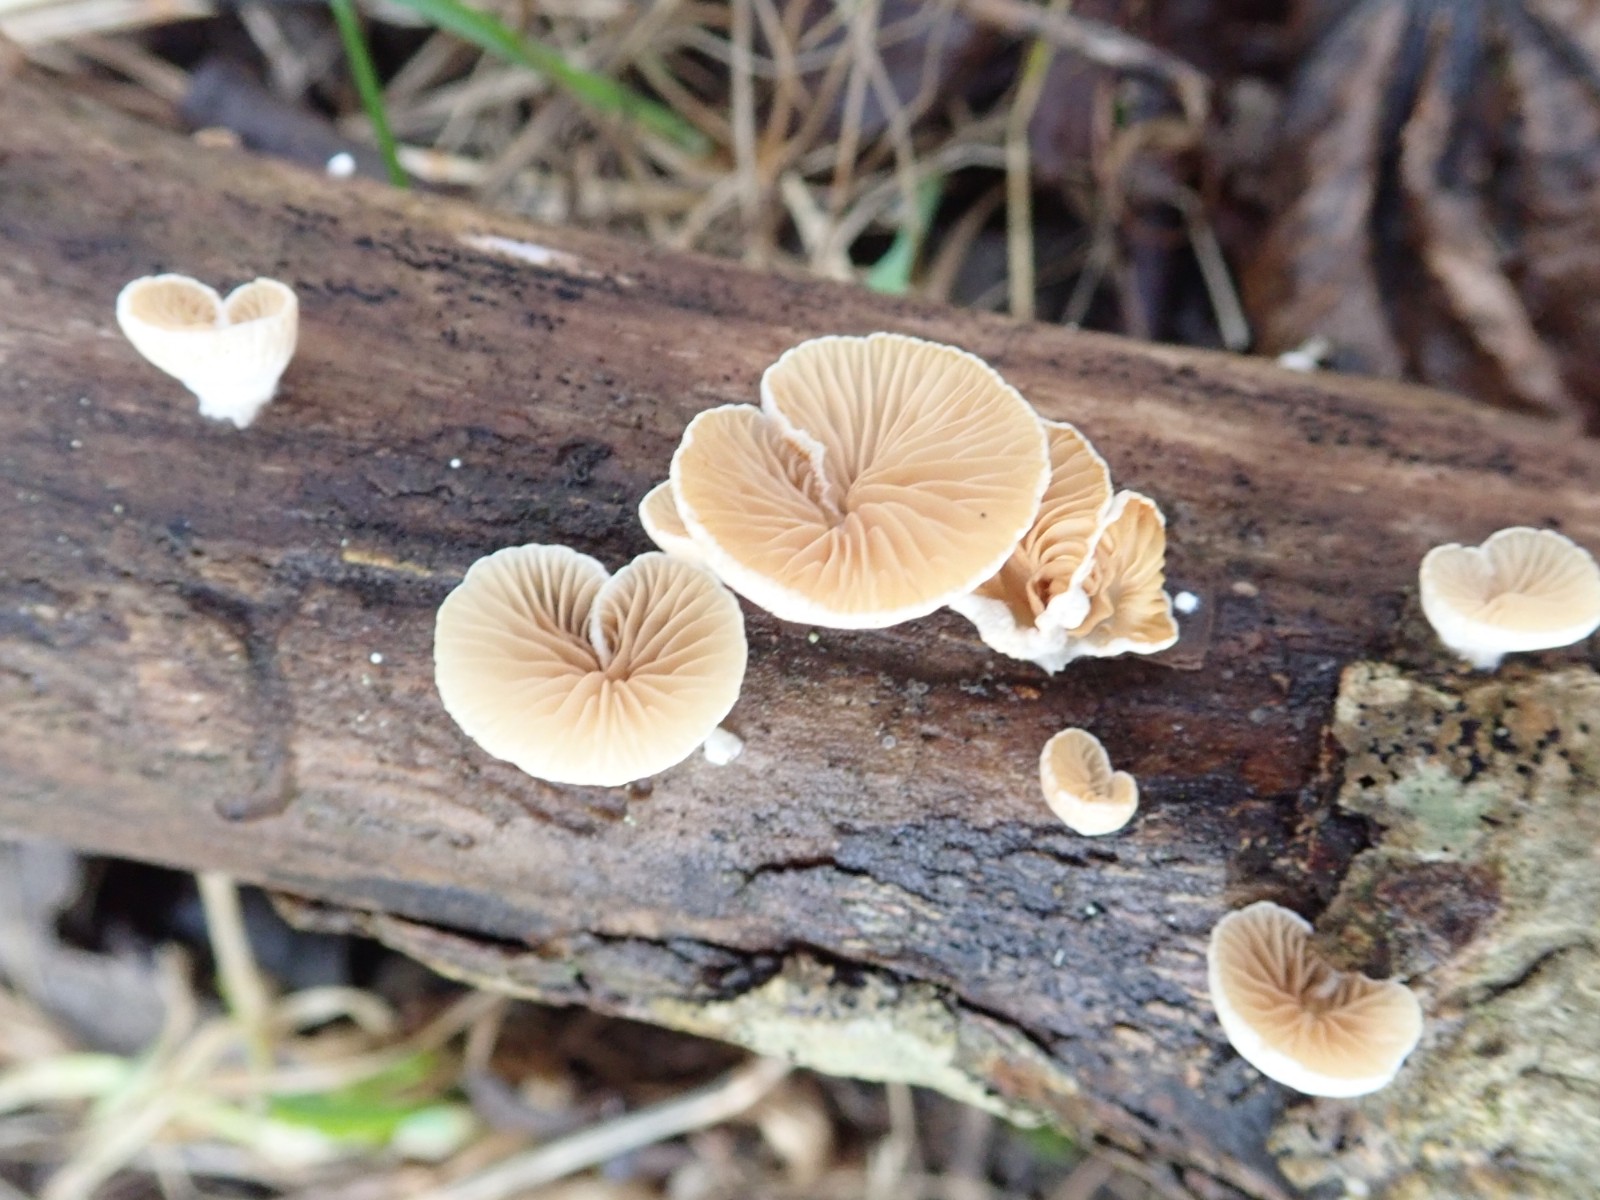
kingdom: Fungi
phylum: Basidiomycota
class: Agaricomycetes
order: Agaricales
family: Crepidotaceae
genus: Crepidotus
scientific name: Crepidotus cesatii
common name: almindelig muslingesvamp
